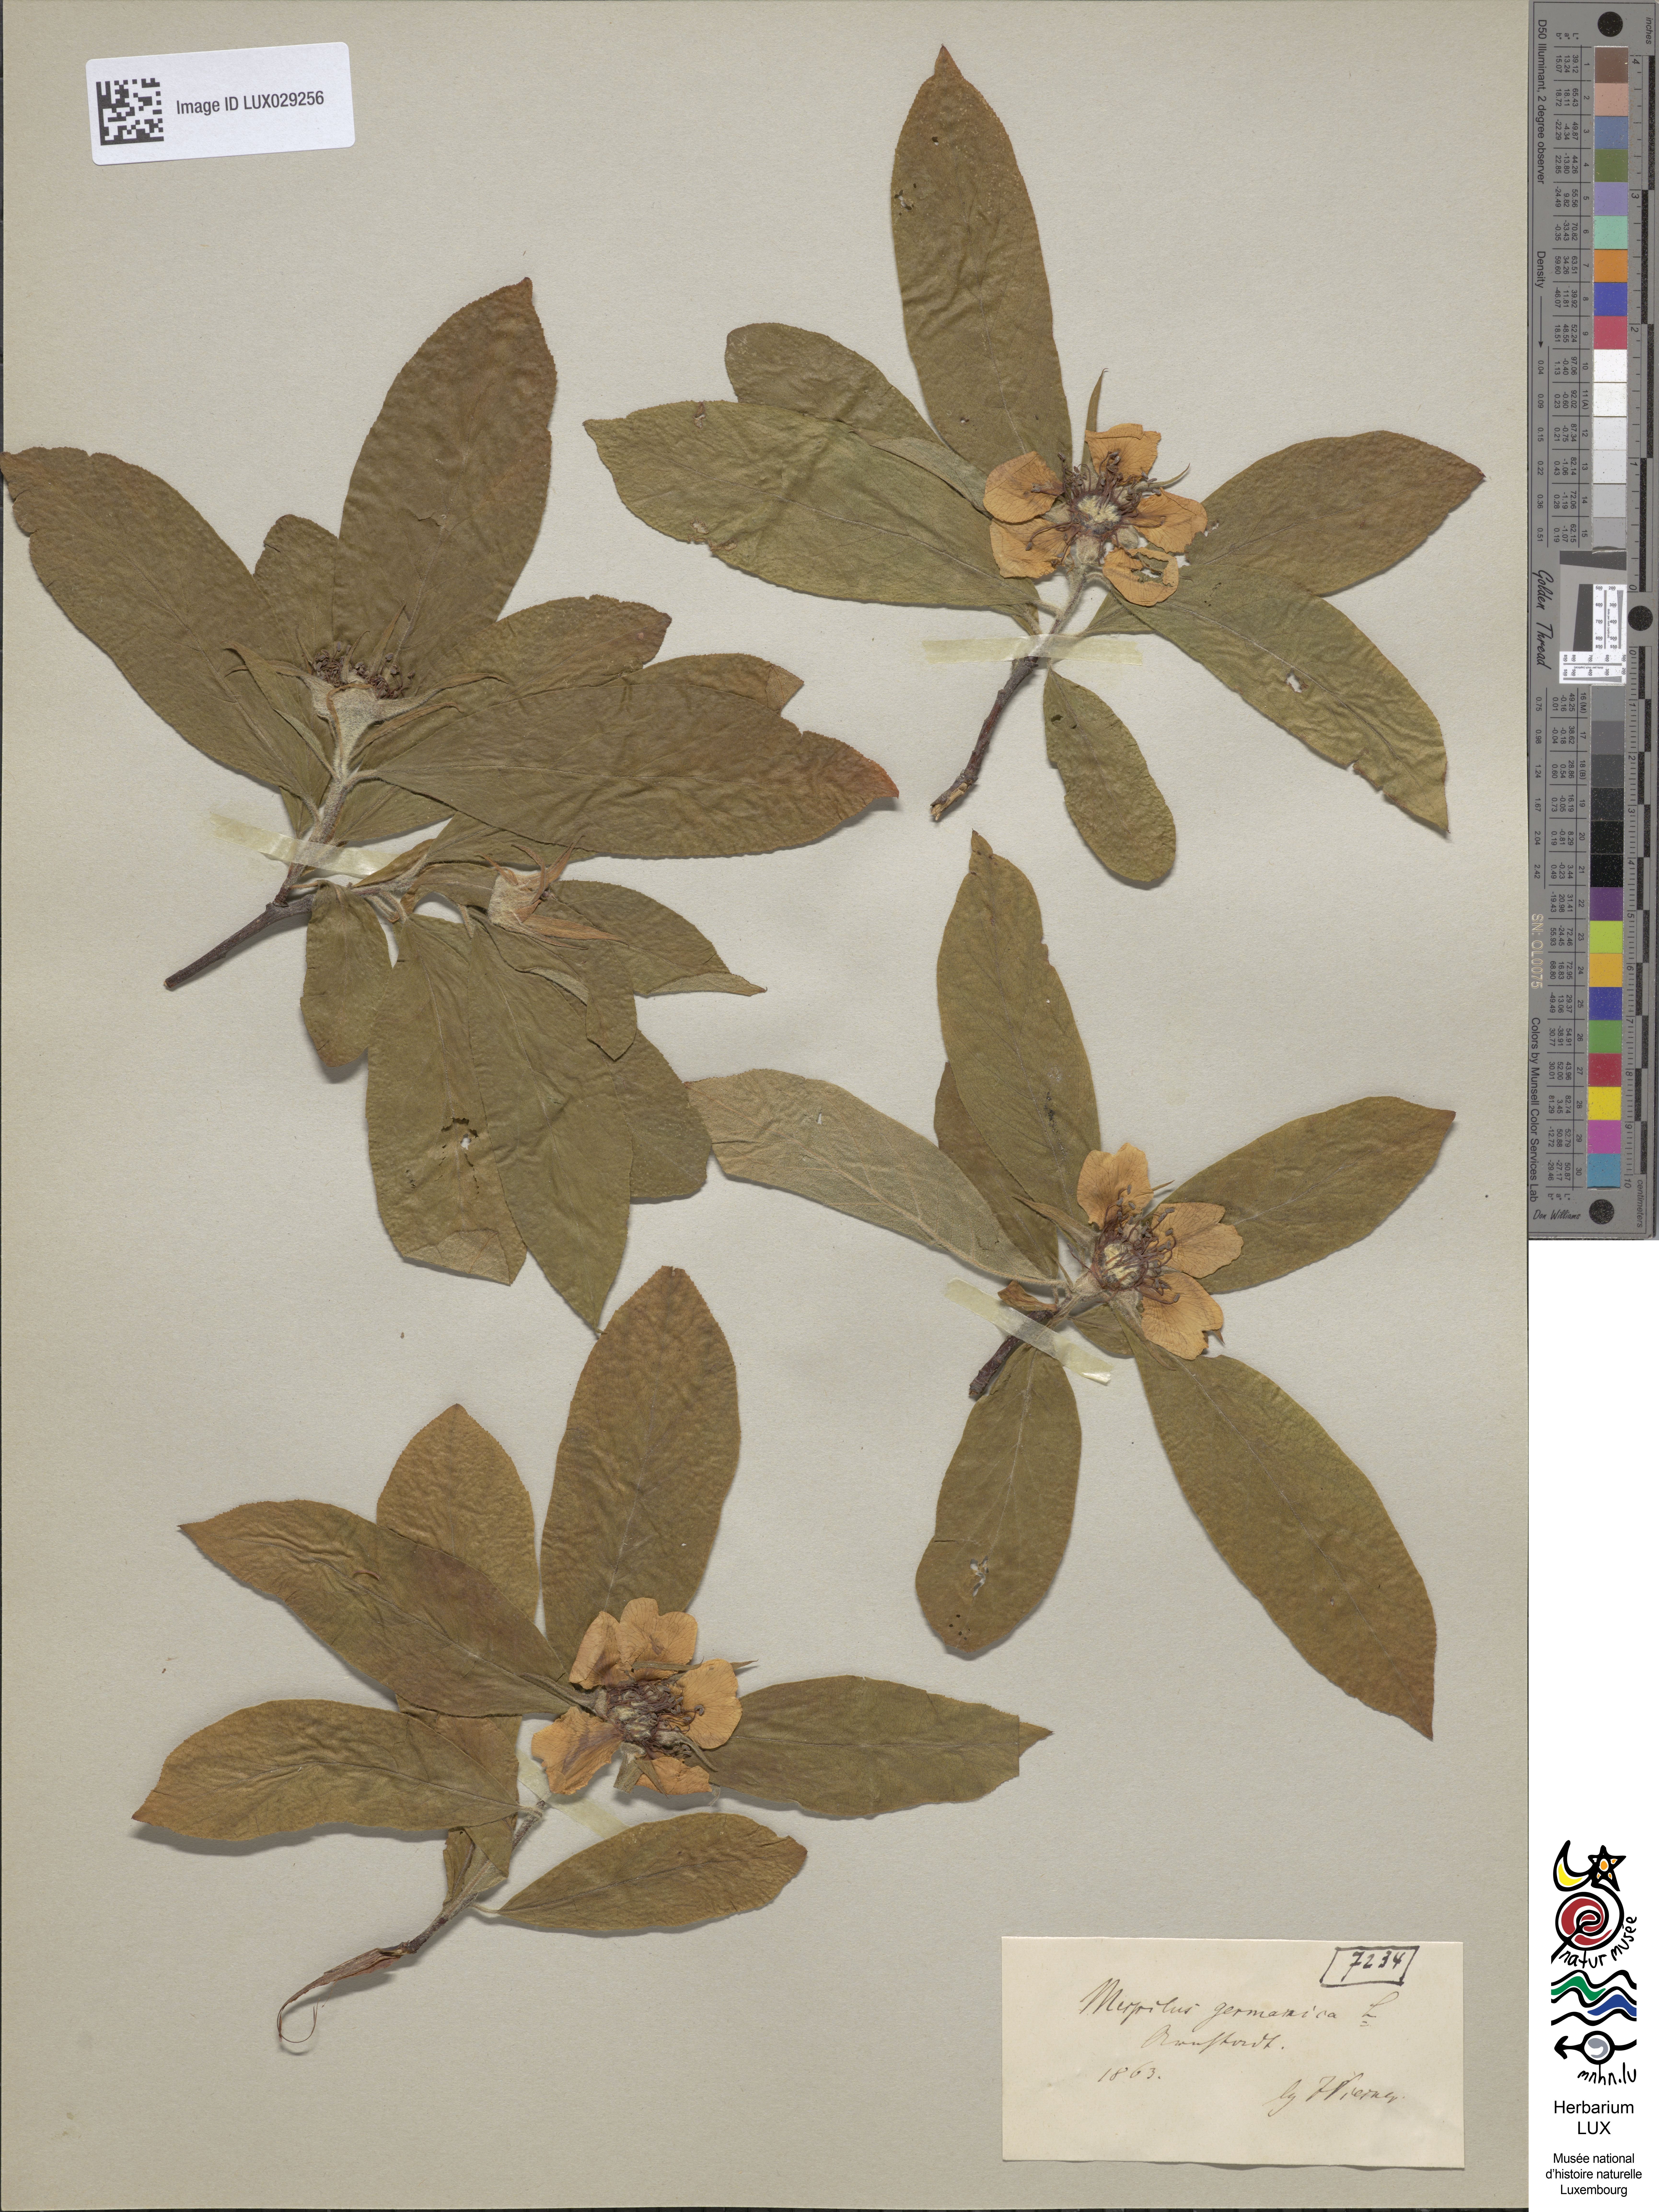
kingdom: Plantae
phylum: Tracheophyta
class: Magnoliopsida
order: Rosales
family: Rosaceae
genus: Mespilus
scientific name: Mespilus germanica
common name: Medlar
